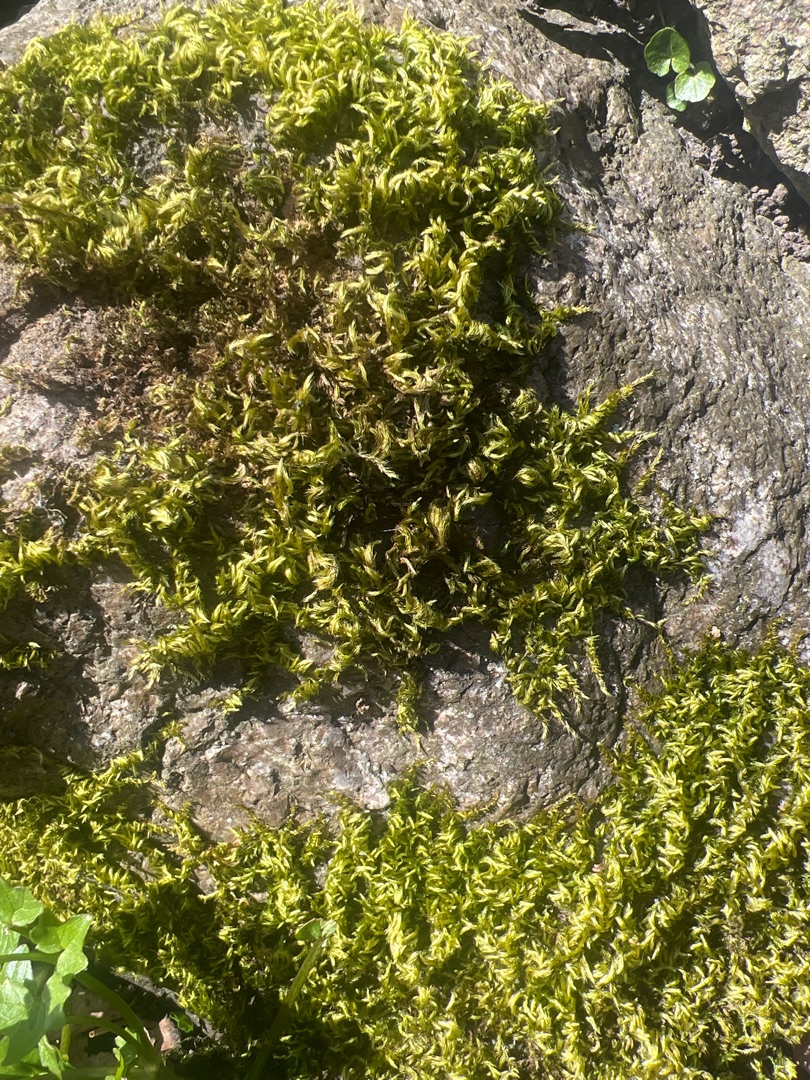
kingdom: Plantae
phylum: Bryophyta
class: Bryopsida
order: Hypnales
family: Brachytheciaceae
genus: Homalothecium
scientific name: Homalothecium sericeum
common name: Krybende silkemos
